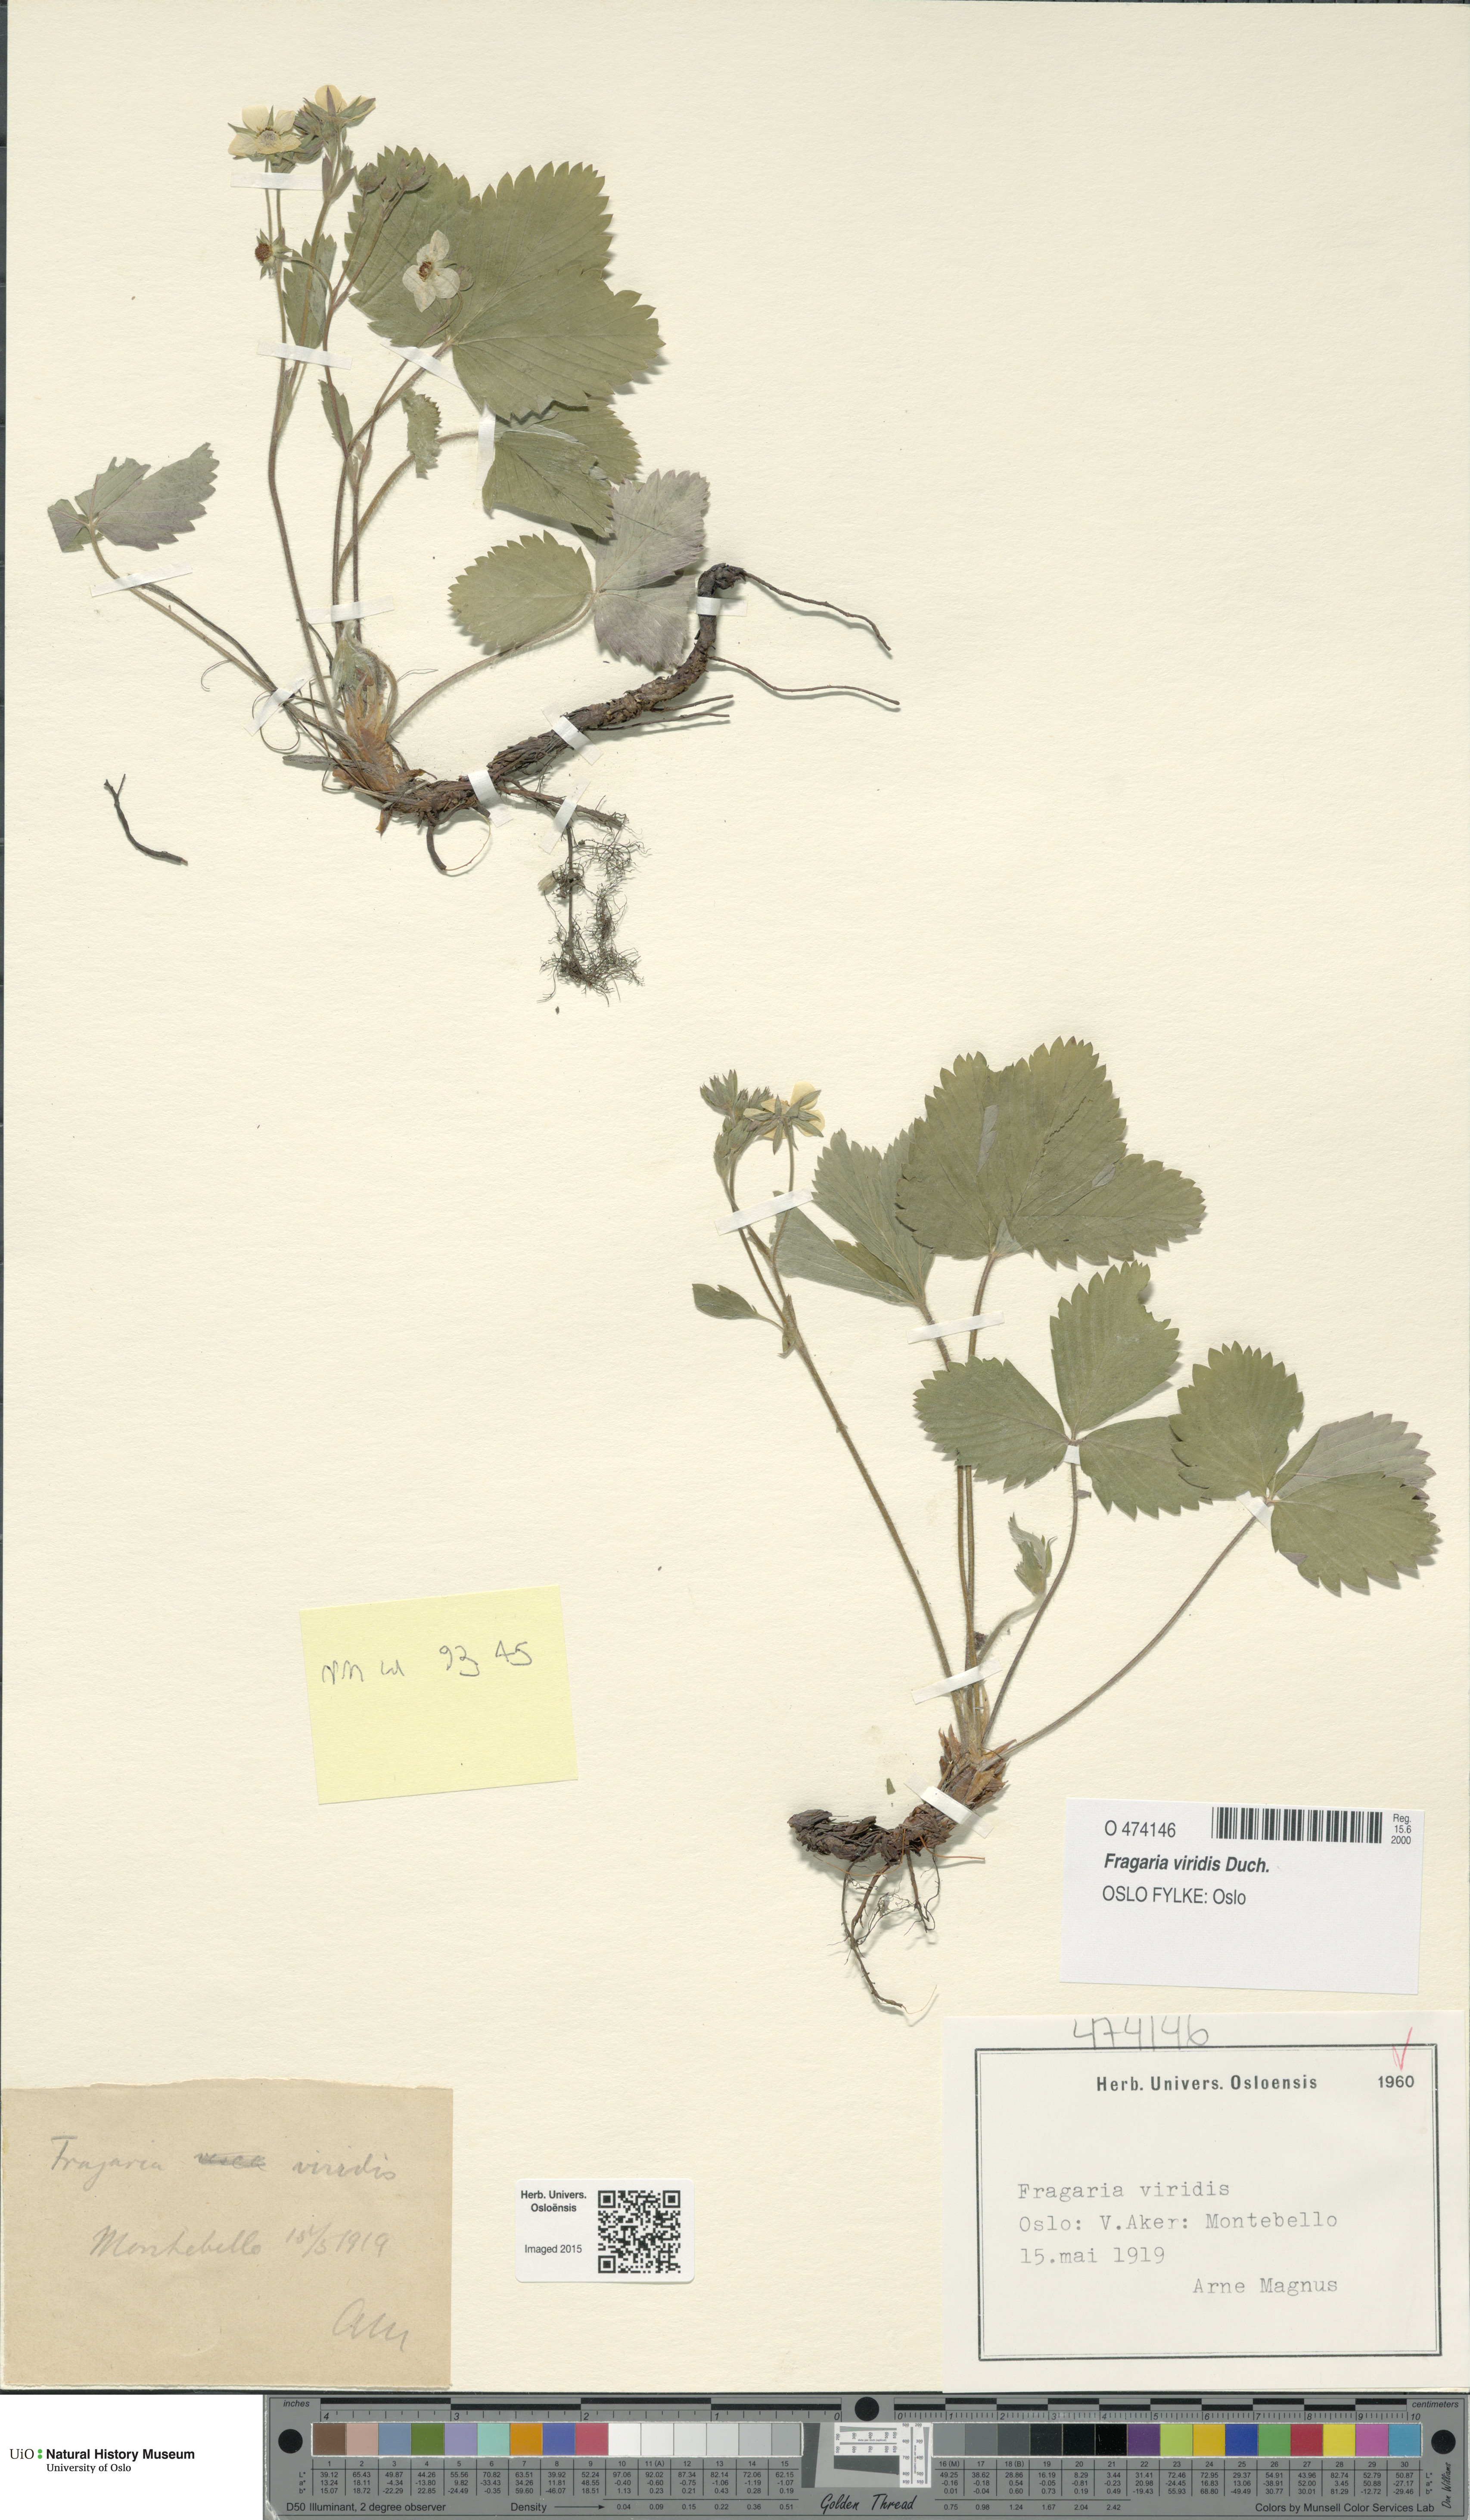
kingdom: Plantae
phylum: Tracheophyta
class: Magnoliopsida
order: Rosales
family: Rosaceae
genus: Fragaria
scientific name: Fragaria viridis
